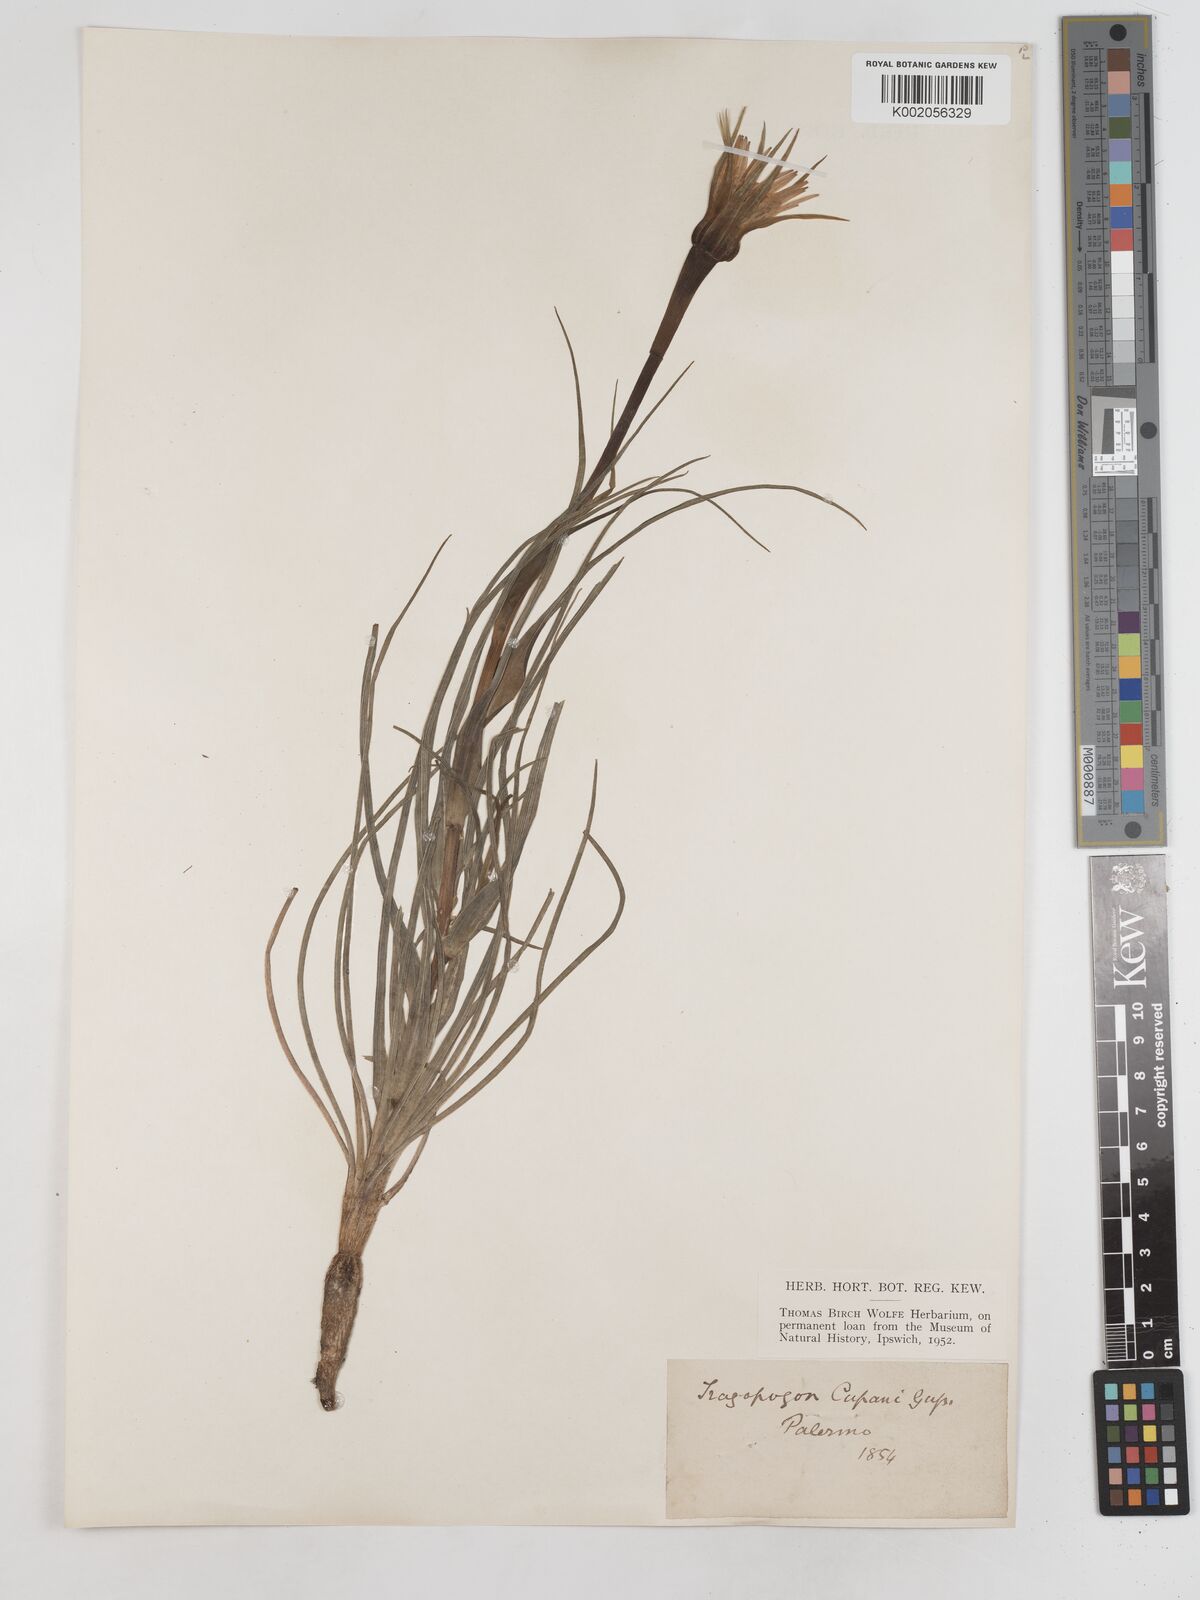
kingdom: Plantae
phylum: Tracheophyta
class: Magnoliopsida
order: Asterales
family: Asteraceae
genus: Tragopogon
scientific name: Tragopogon porrifolius
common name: Salsify
